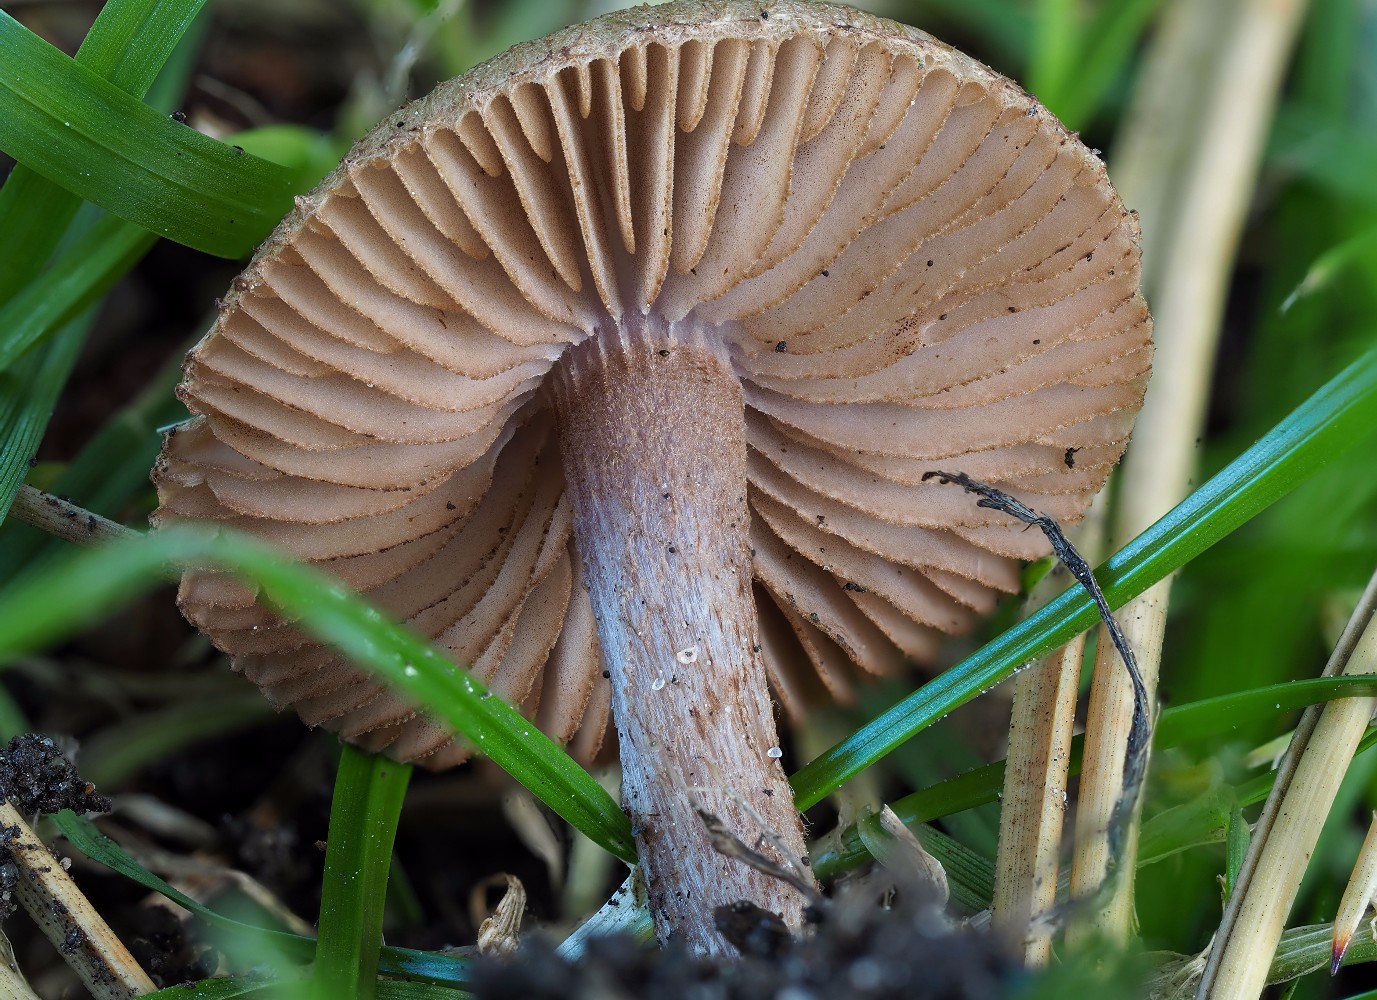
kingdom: Fungi
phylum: Basidiomycota
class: Agaricomycetes
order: Agaricales
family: Inocybaceae
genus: Inocybe
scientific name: Inocybe cincinnata
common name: lillabladet trævlhat
